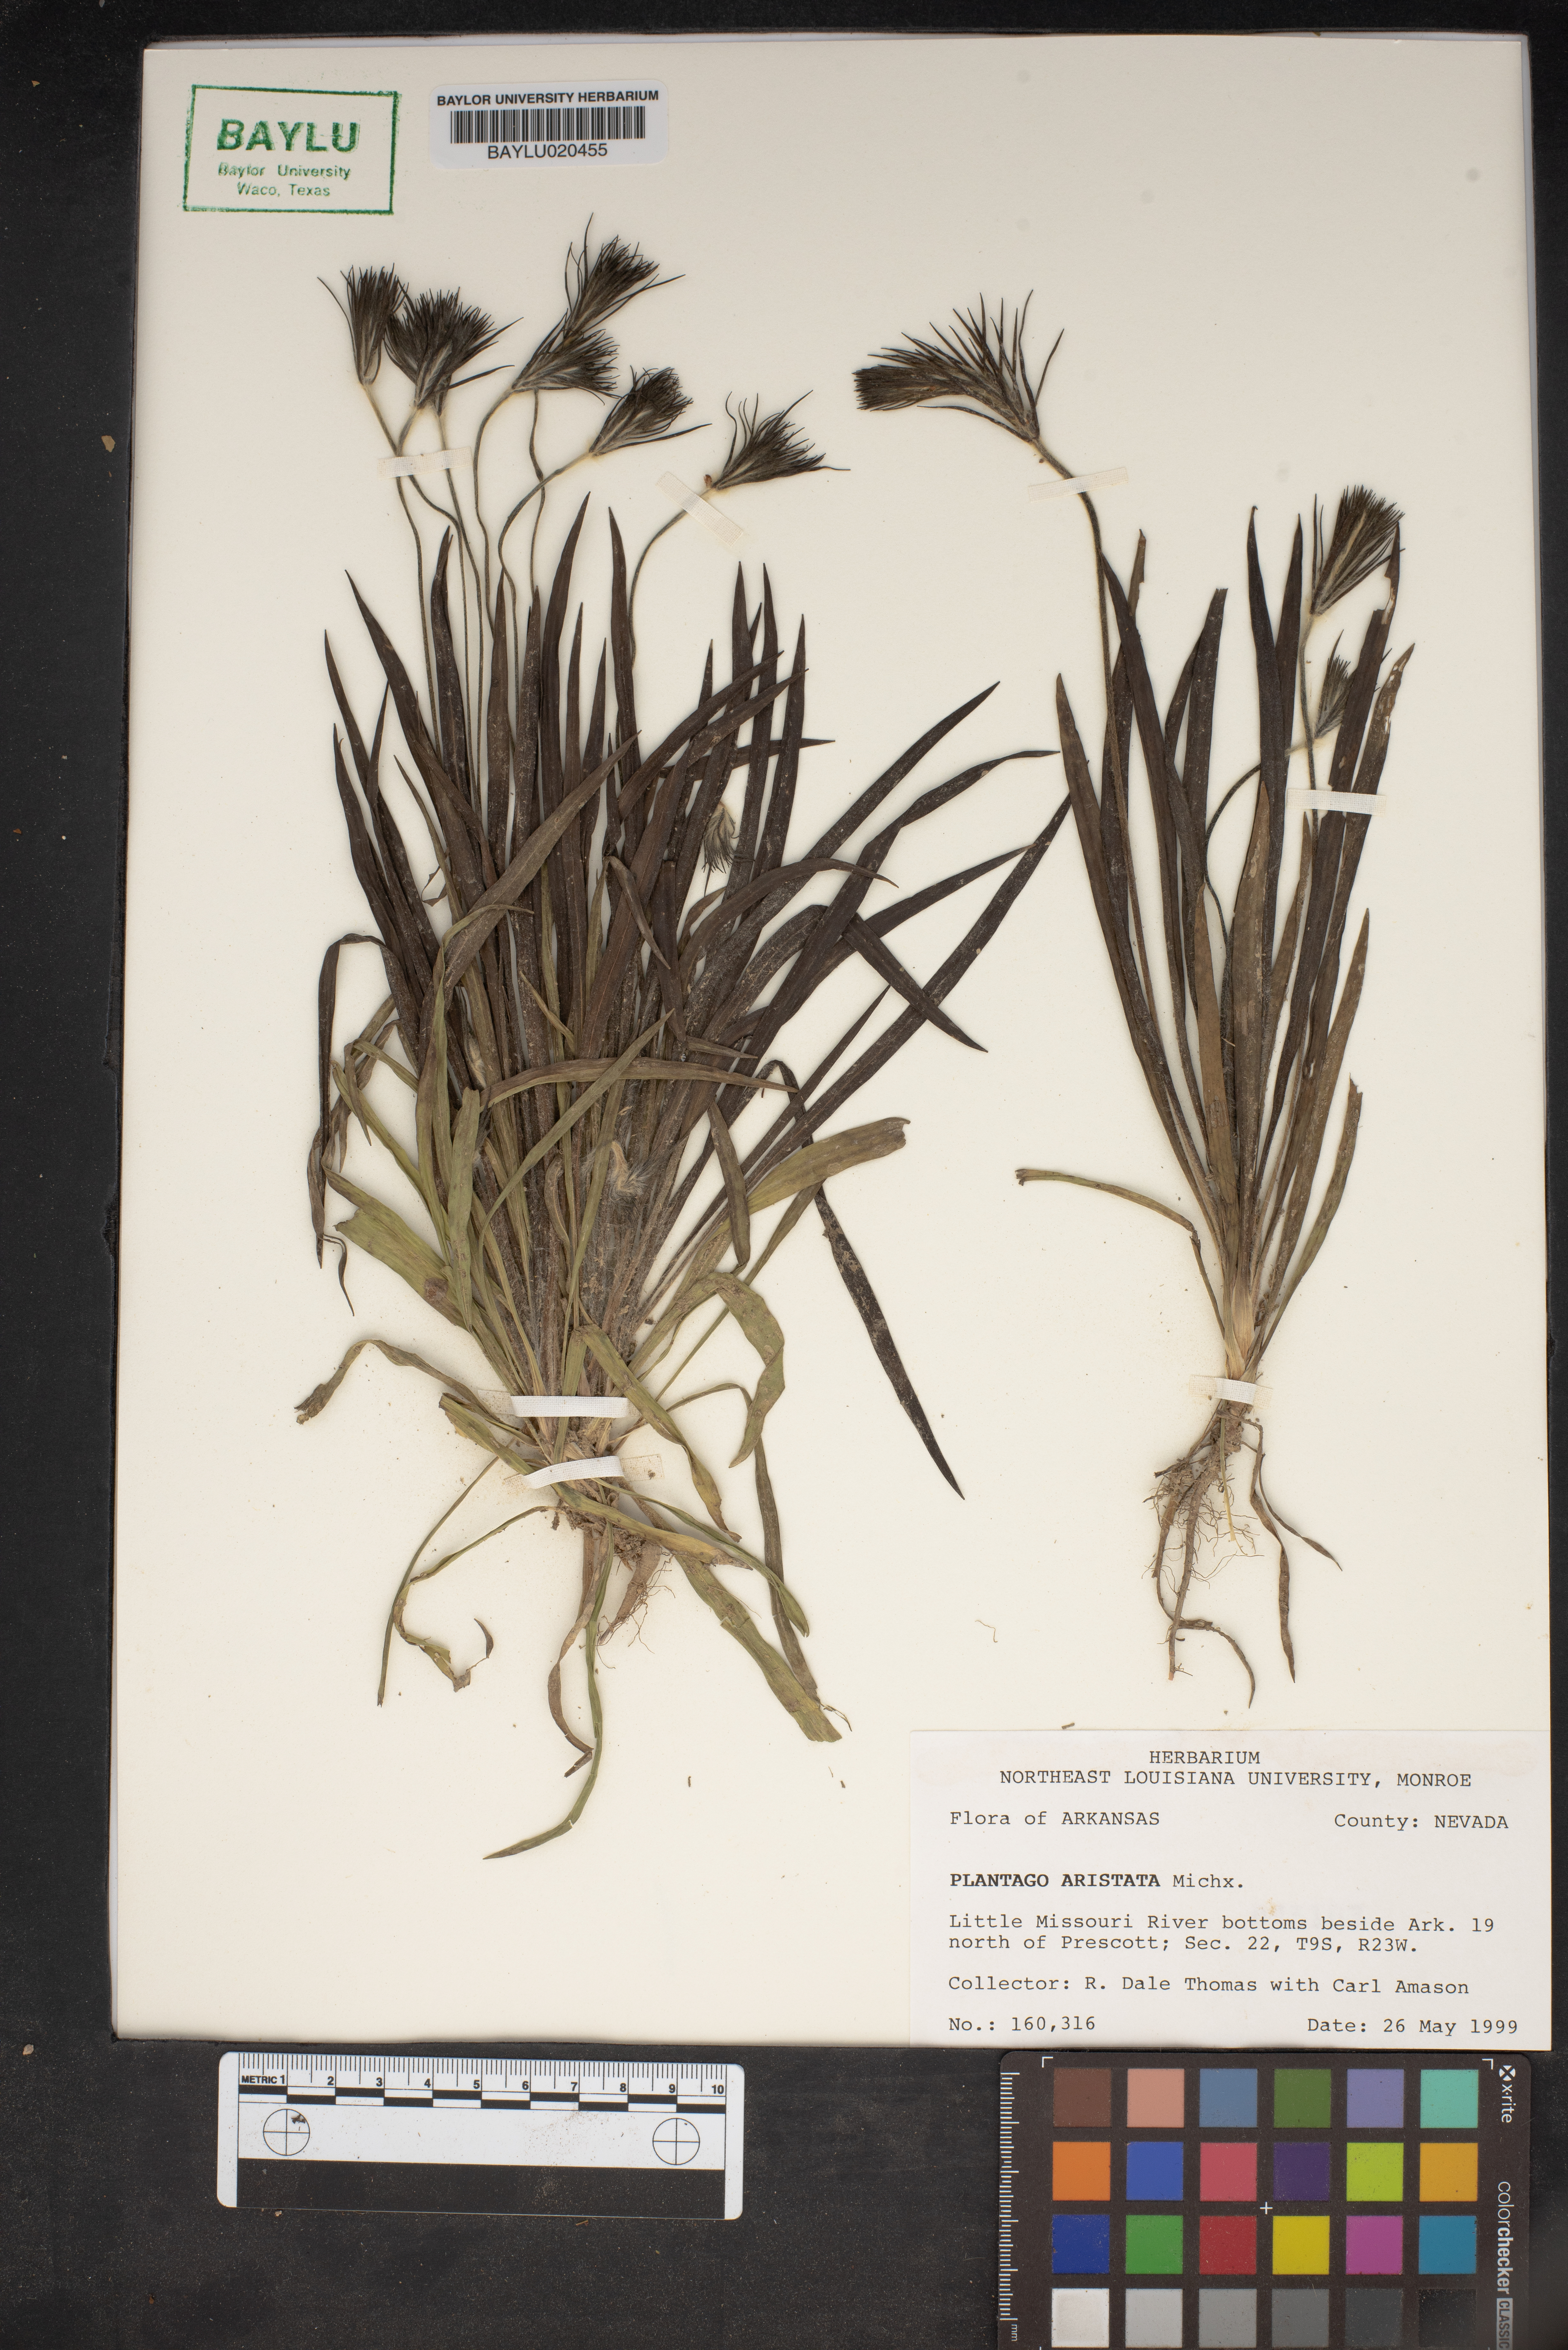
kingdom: Plantae
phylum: Tracheophyta
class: Magnoliopsida
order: Lamiales
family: Plantaginaceae
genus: Plantago
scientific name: Plantago aristata
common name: Bracted plantain
